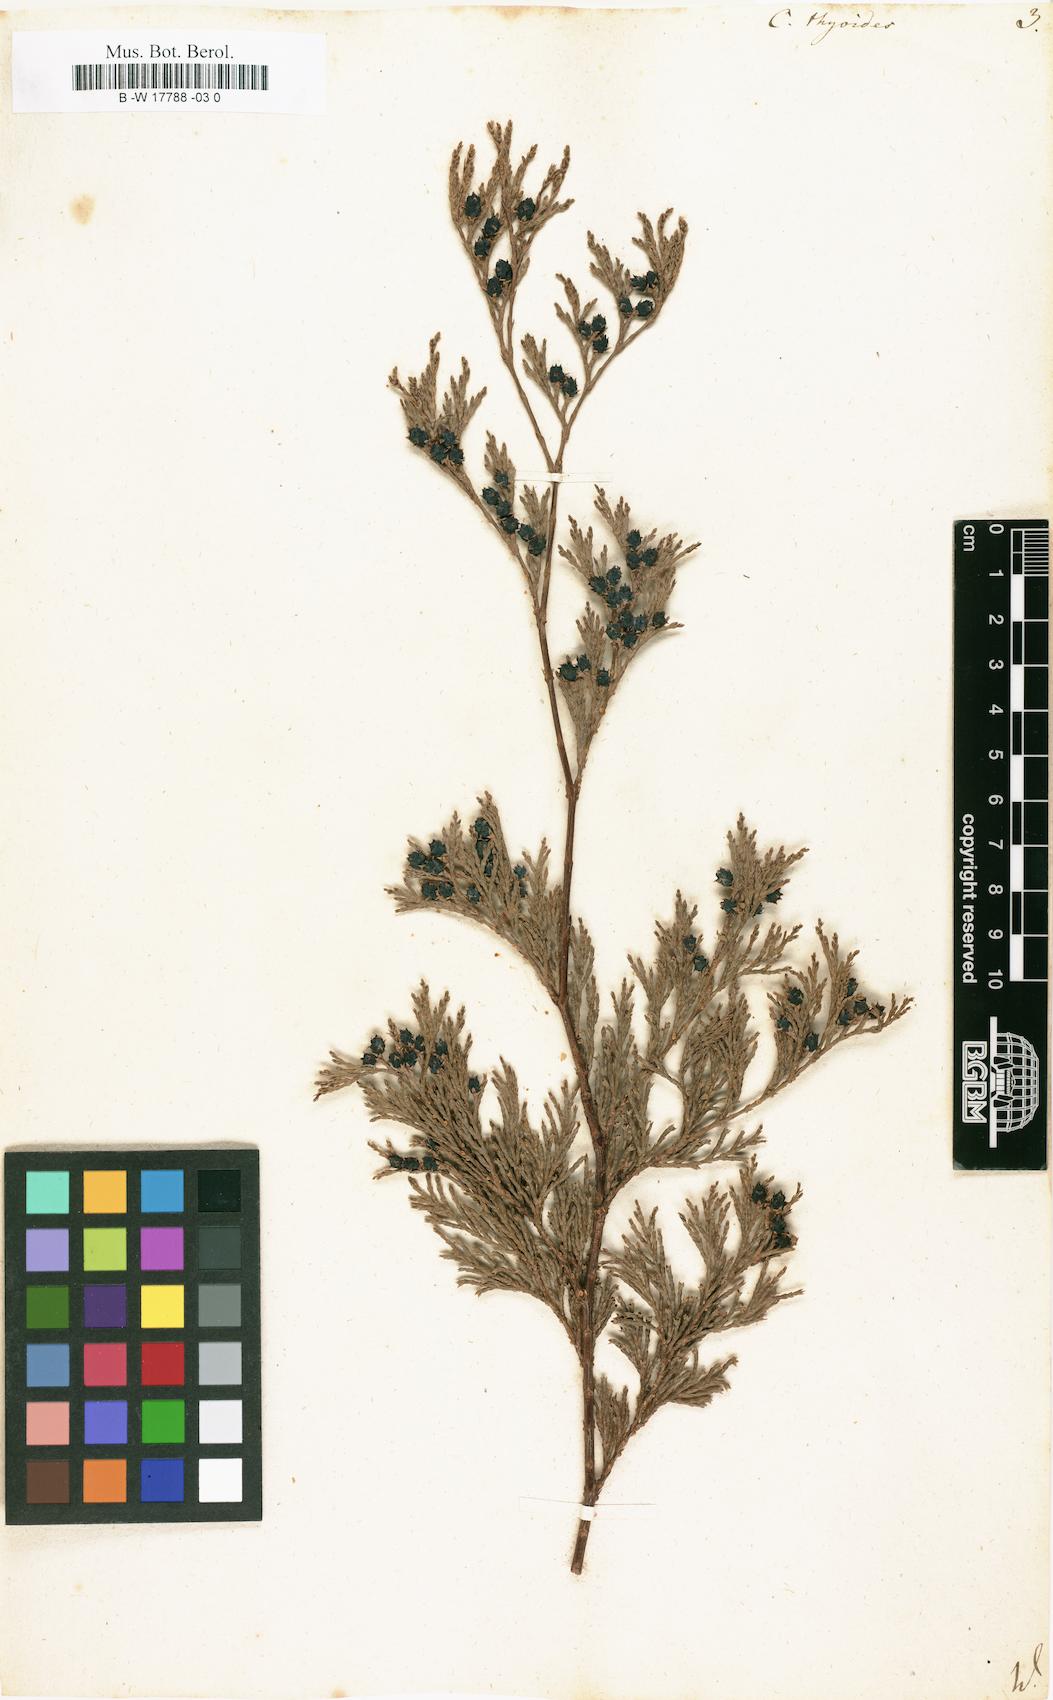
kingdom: Plantae
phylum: Tracheophyta
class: Pinopsida
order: Pinales
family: Cupressaceae
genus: Cupressus
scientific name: Cupressus thyoides
